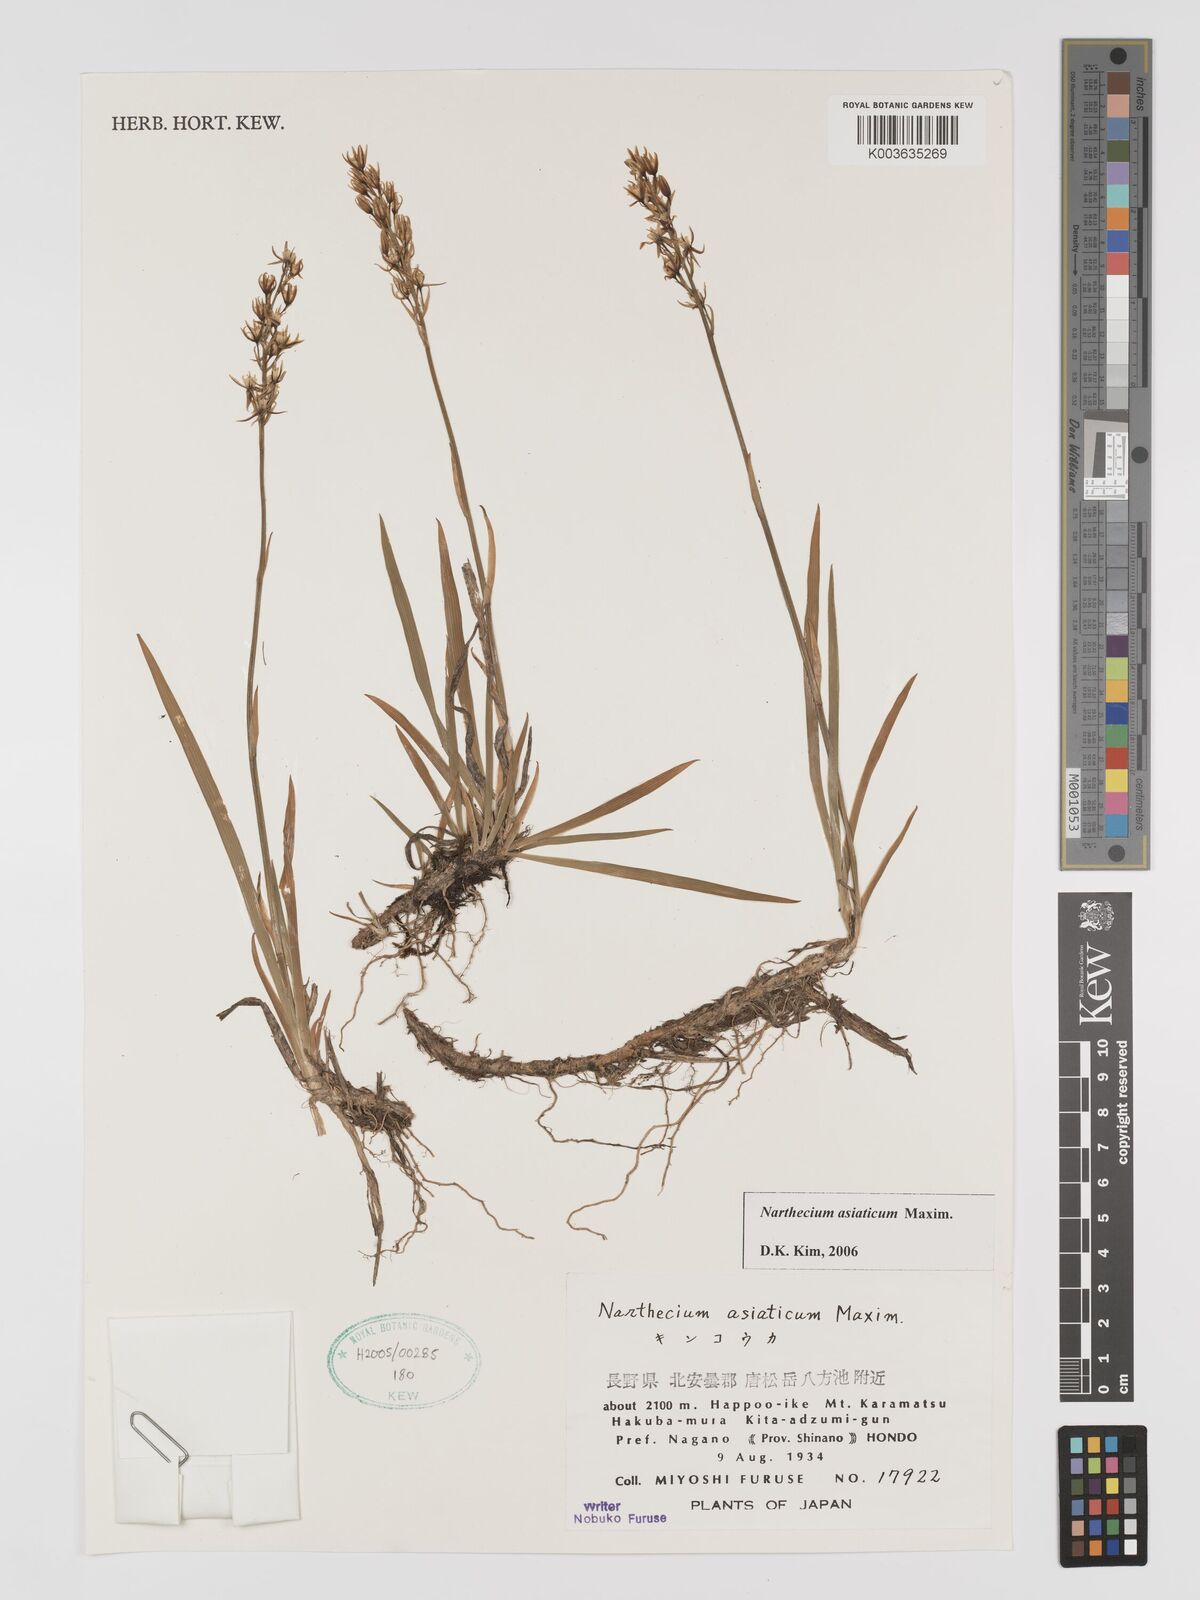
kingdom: Plantae
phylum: Tracheophyta
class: Liliopsida
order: Dioscoreales
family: Nartheciaceae
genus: Narthecium
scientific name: Narthecium asiaticum
